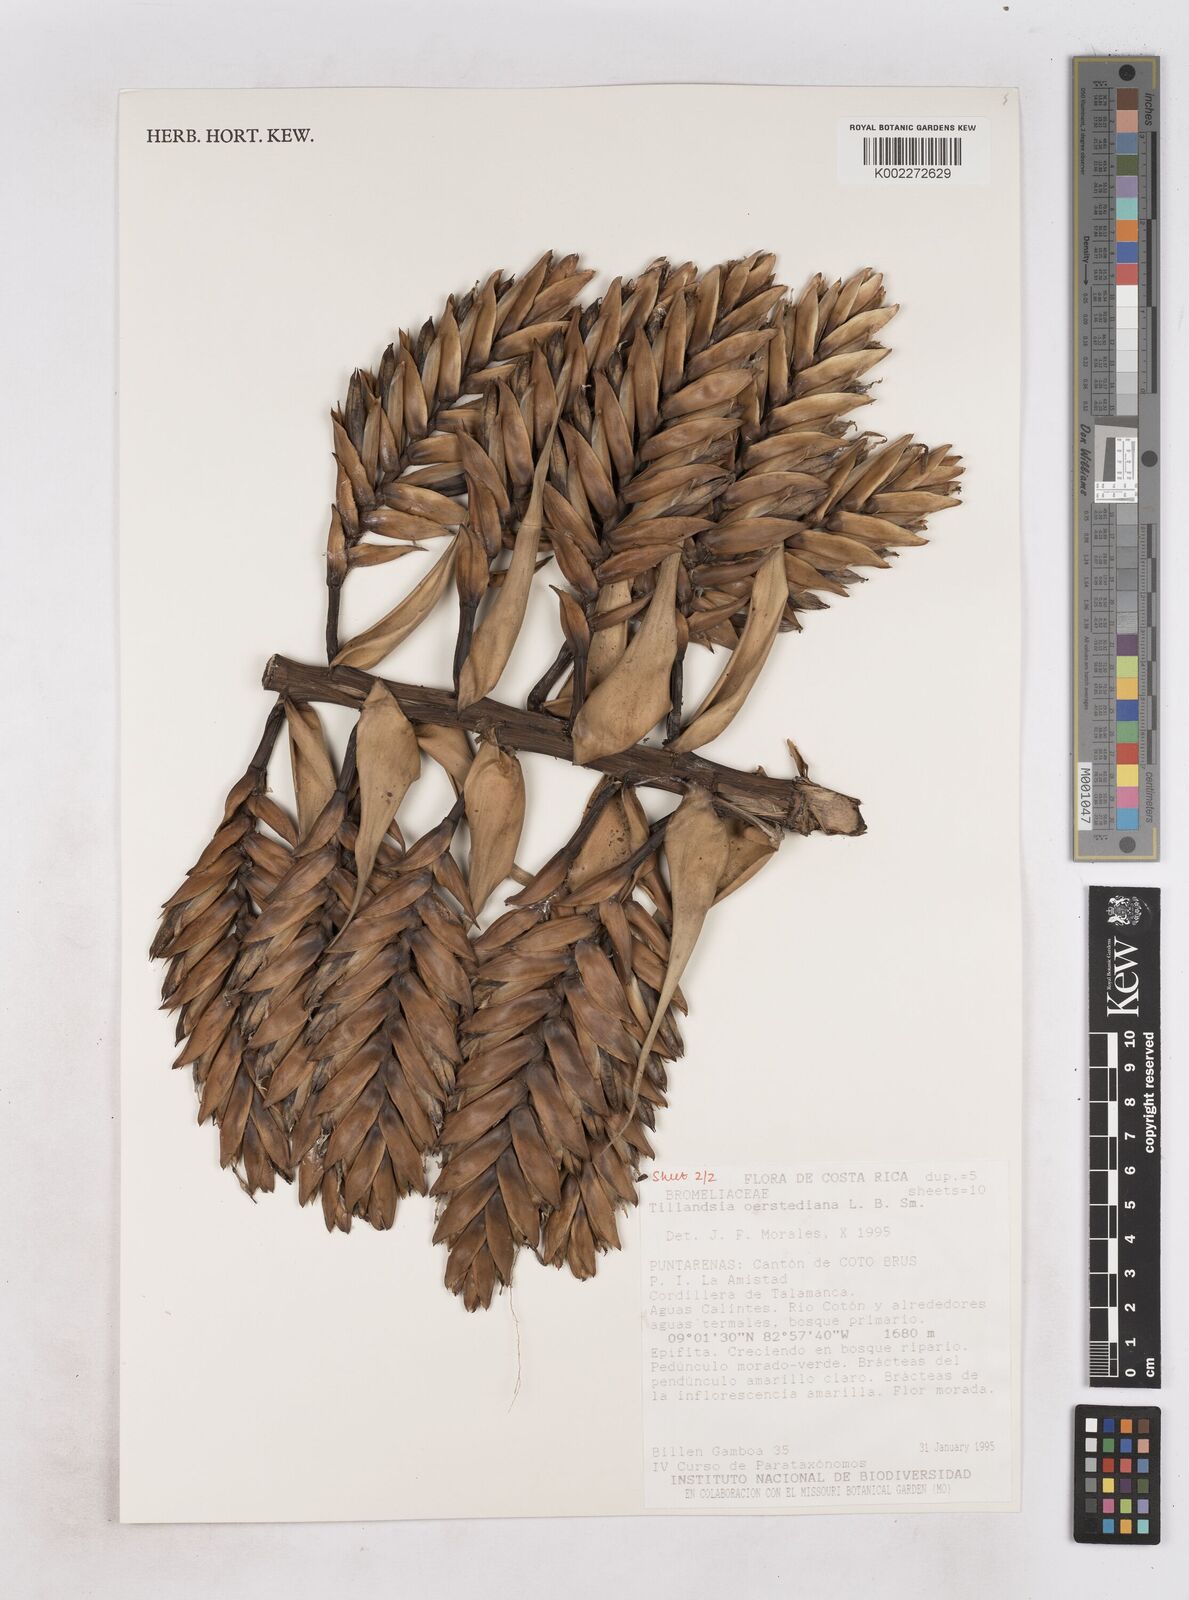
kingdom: Plantae
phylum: Tracheophyta
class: Liliopsida
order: Poales
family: Bromeliaceae
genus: Tillandsia
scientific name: Tillandsia oerstediana
